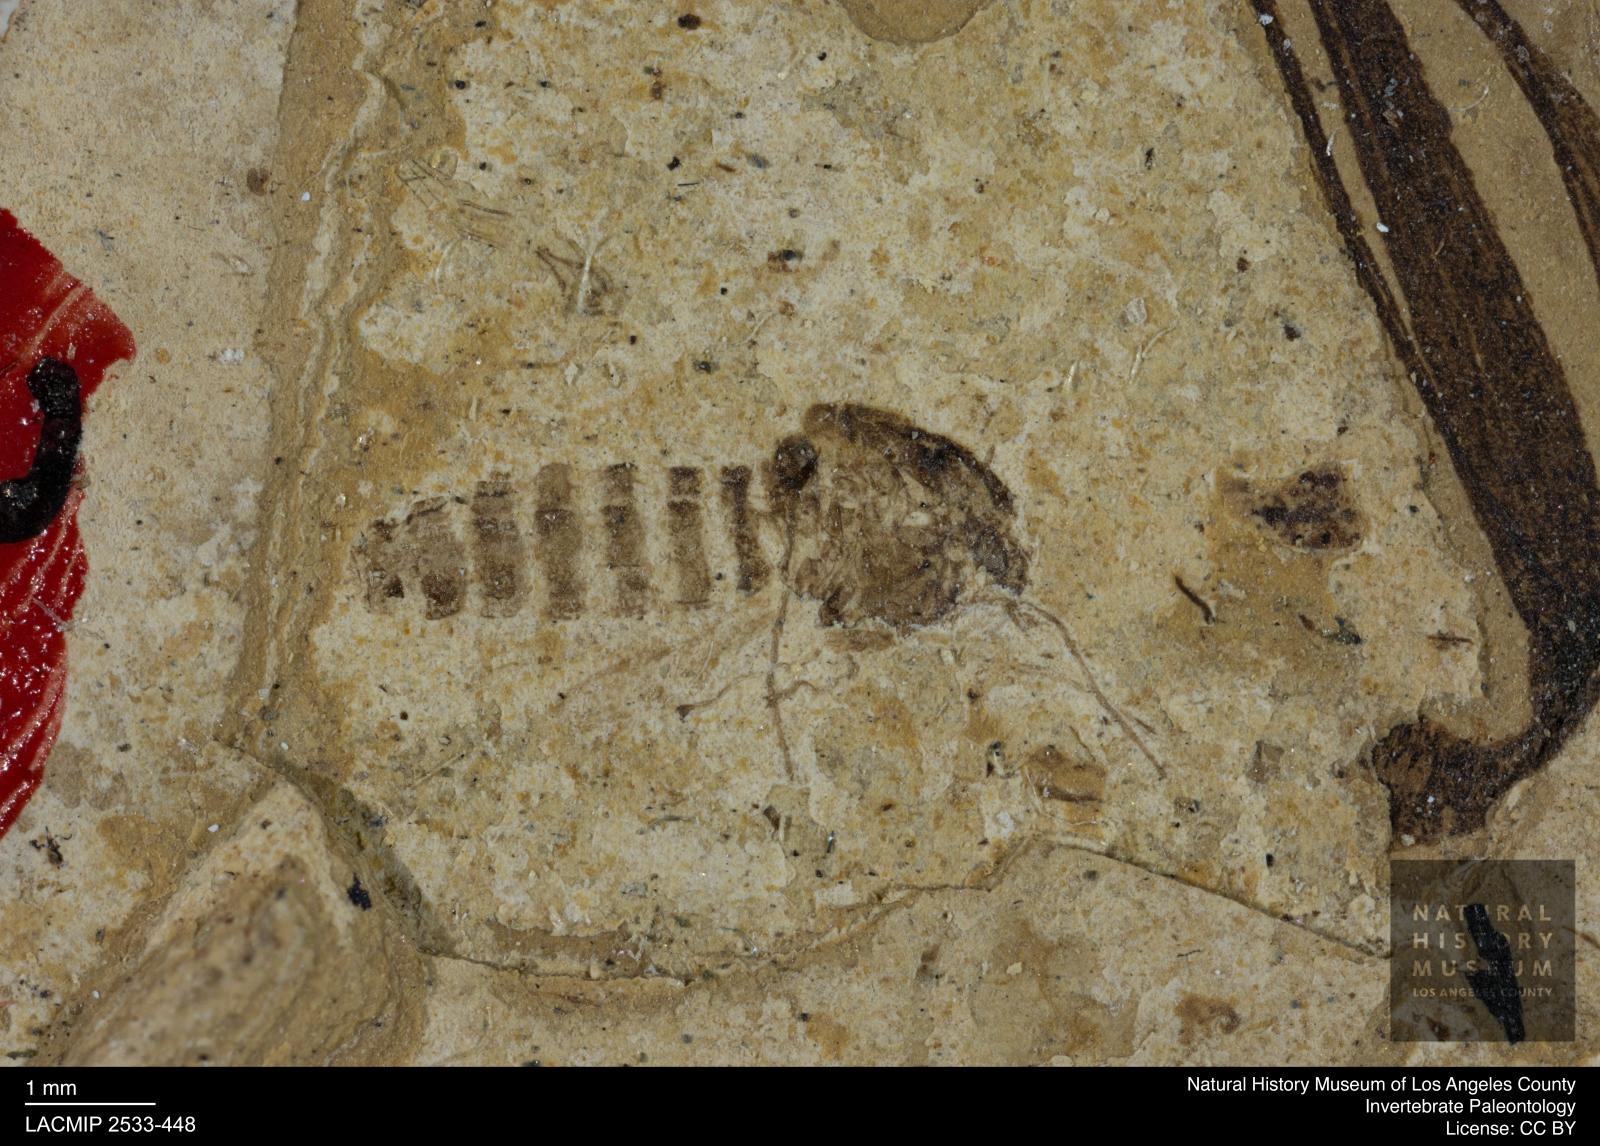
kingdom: Animalia
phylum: Arthropoda
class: Insecta
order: Diptera
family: Chironomidae
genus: Tanypus
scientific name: Tanypus thienemanni
